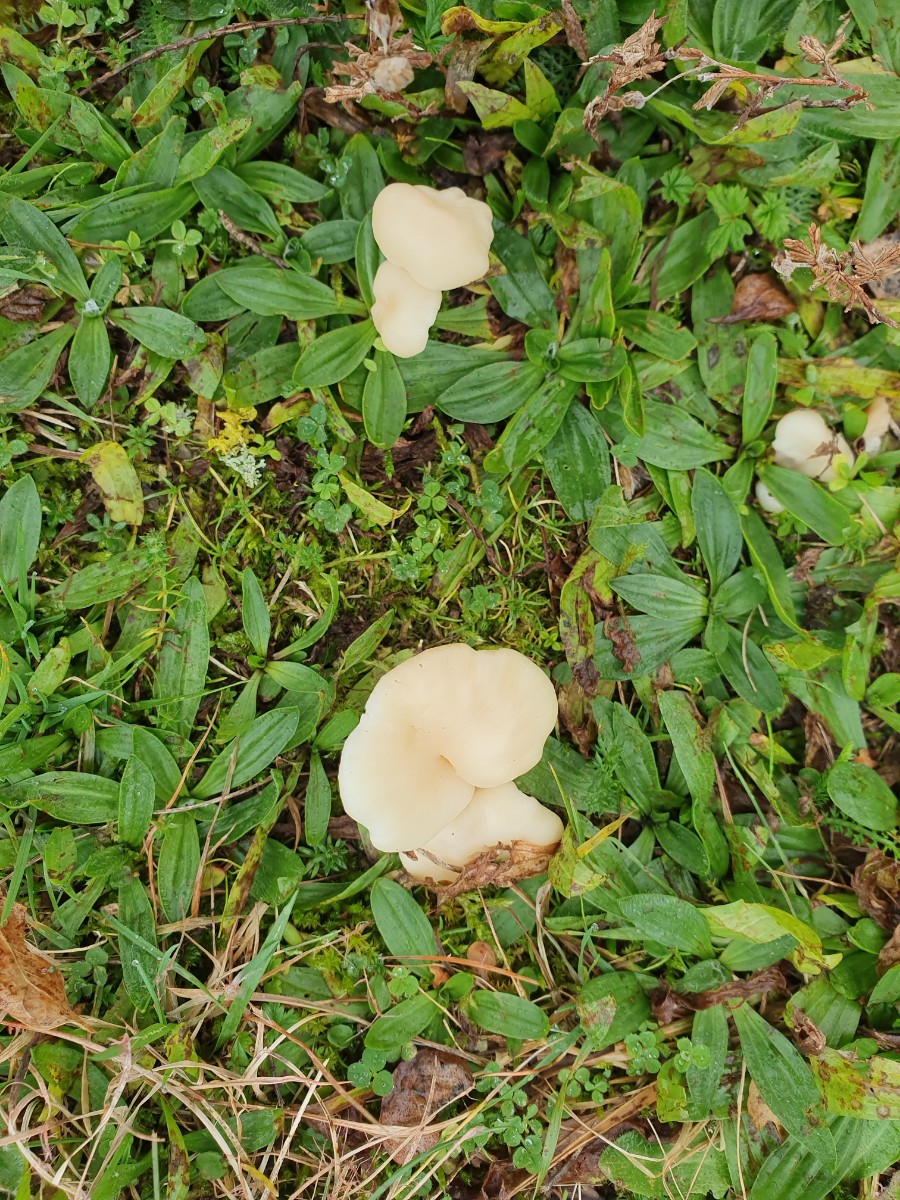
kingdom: Fungi
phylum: Basidiomycota
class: Agaricomycetes
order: Agaricales
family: Hygrophoraceae
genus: Cuphophyllus
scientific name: Cuphophyllus virgineus
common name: snehvid vokshat
